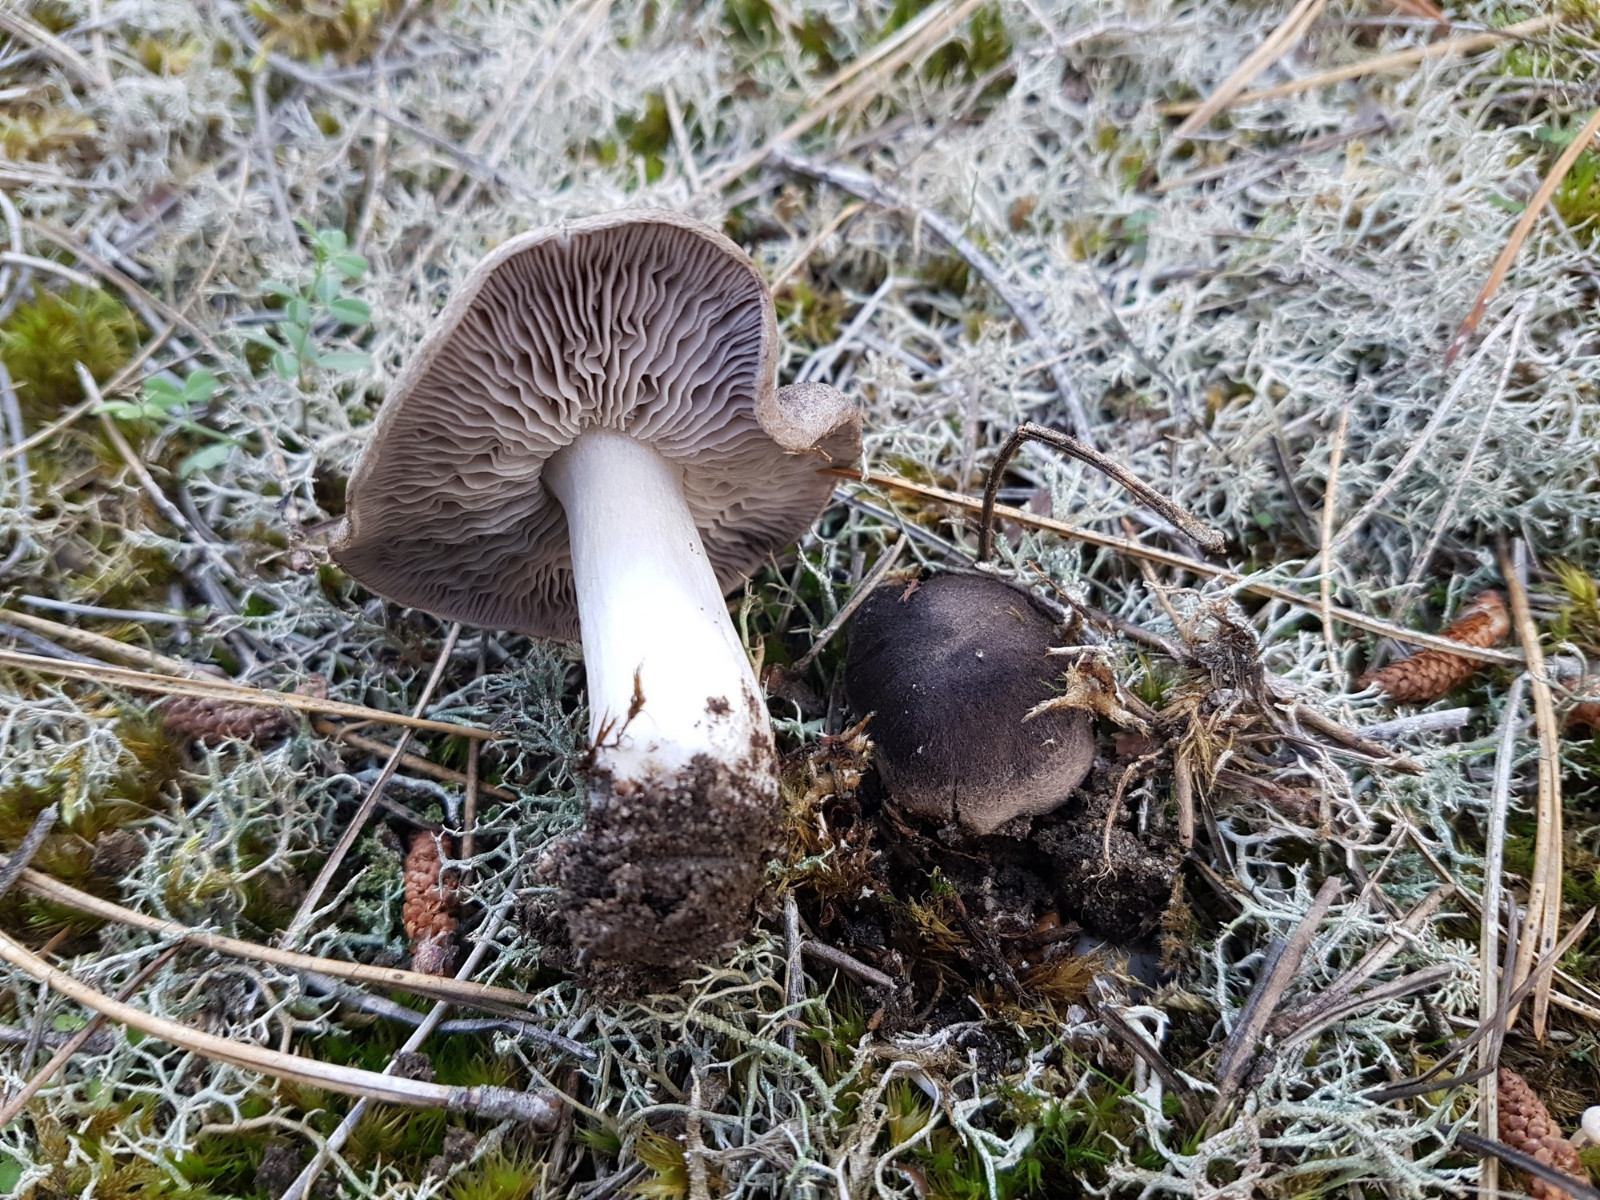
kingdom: Fungi
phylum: Basidiomycota
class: Agaricomycetes
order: Agaricales
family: Tricholomataceae
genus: Tricholoma
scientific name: Tricholoma terreum
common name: jordfarvet ridderhat
